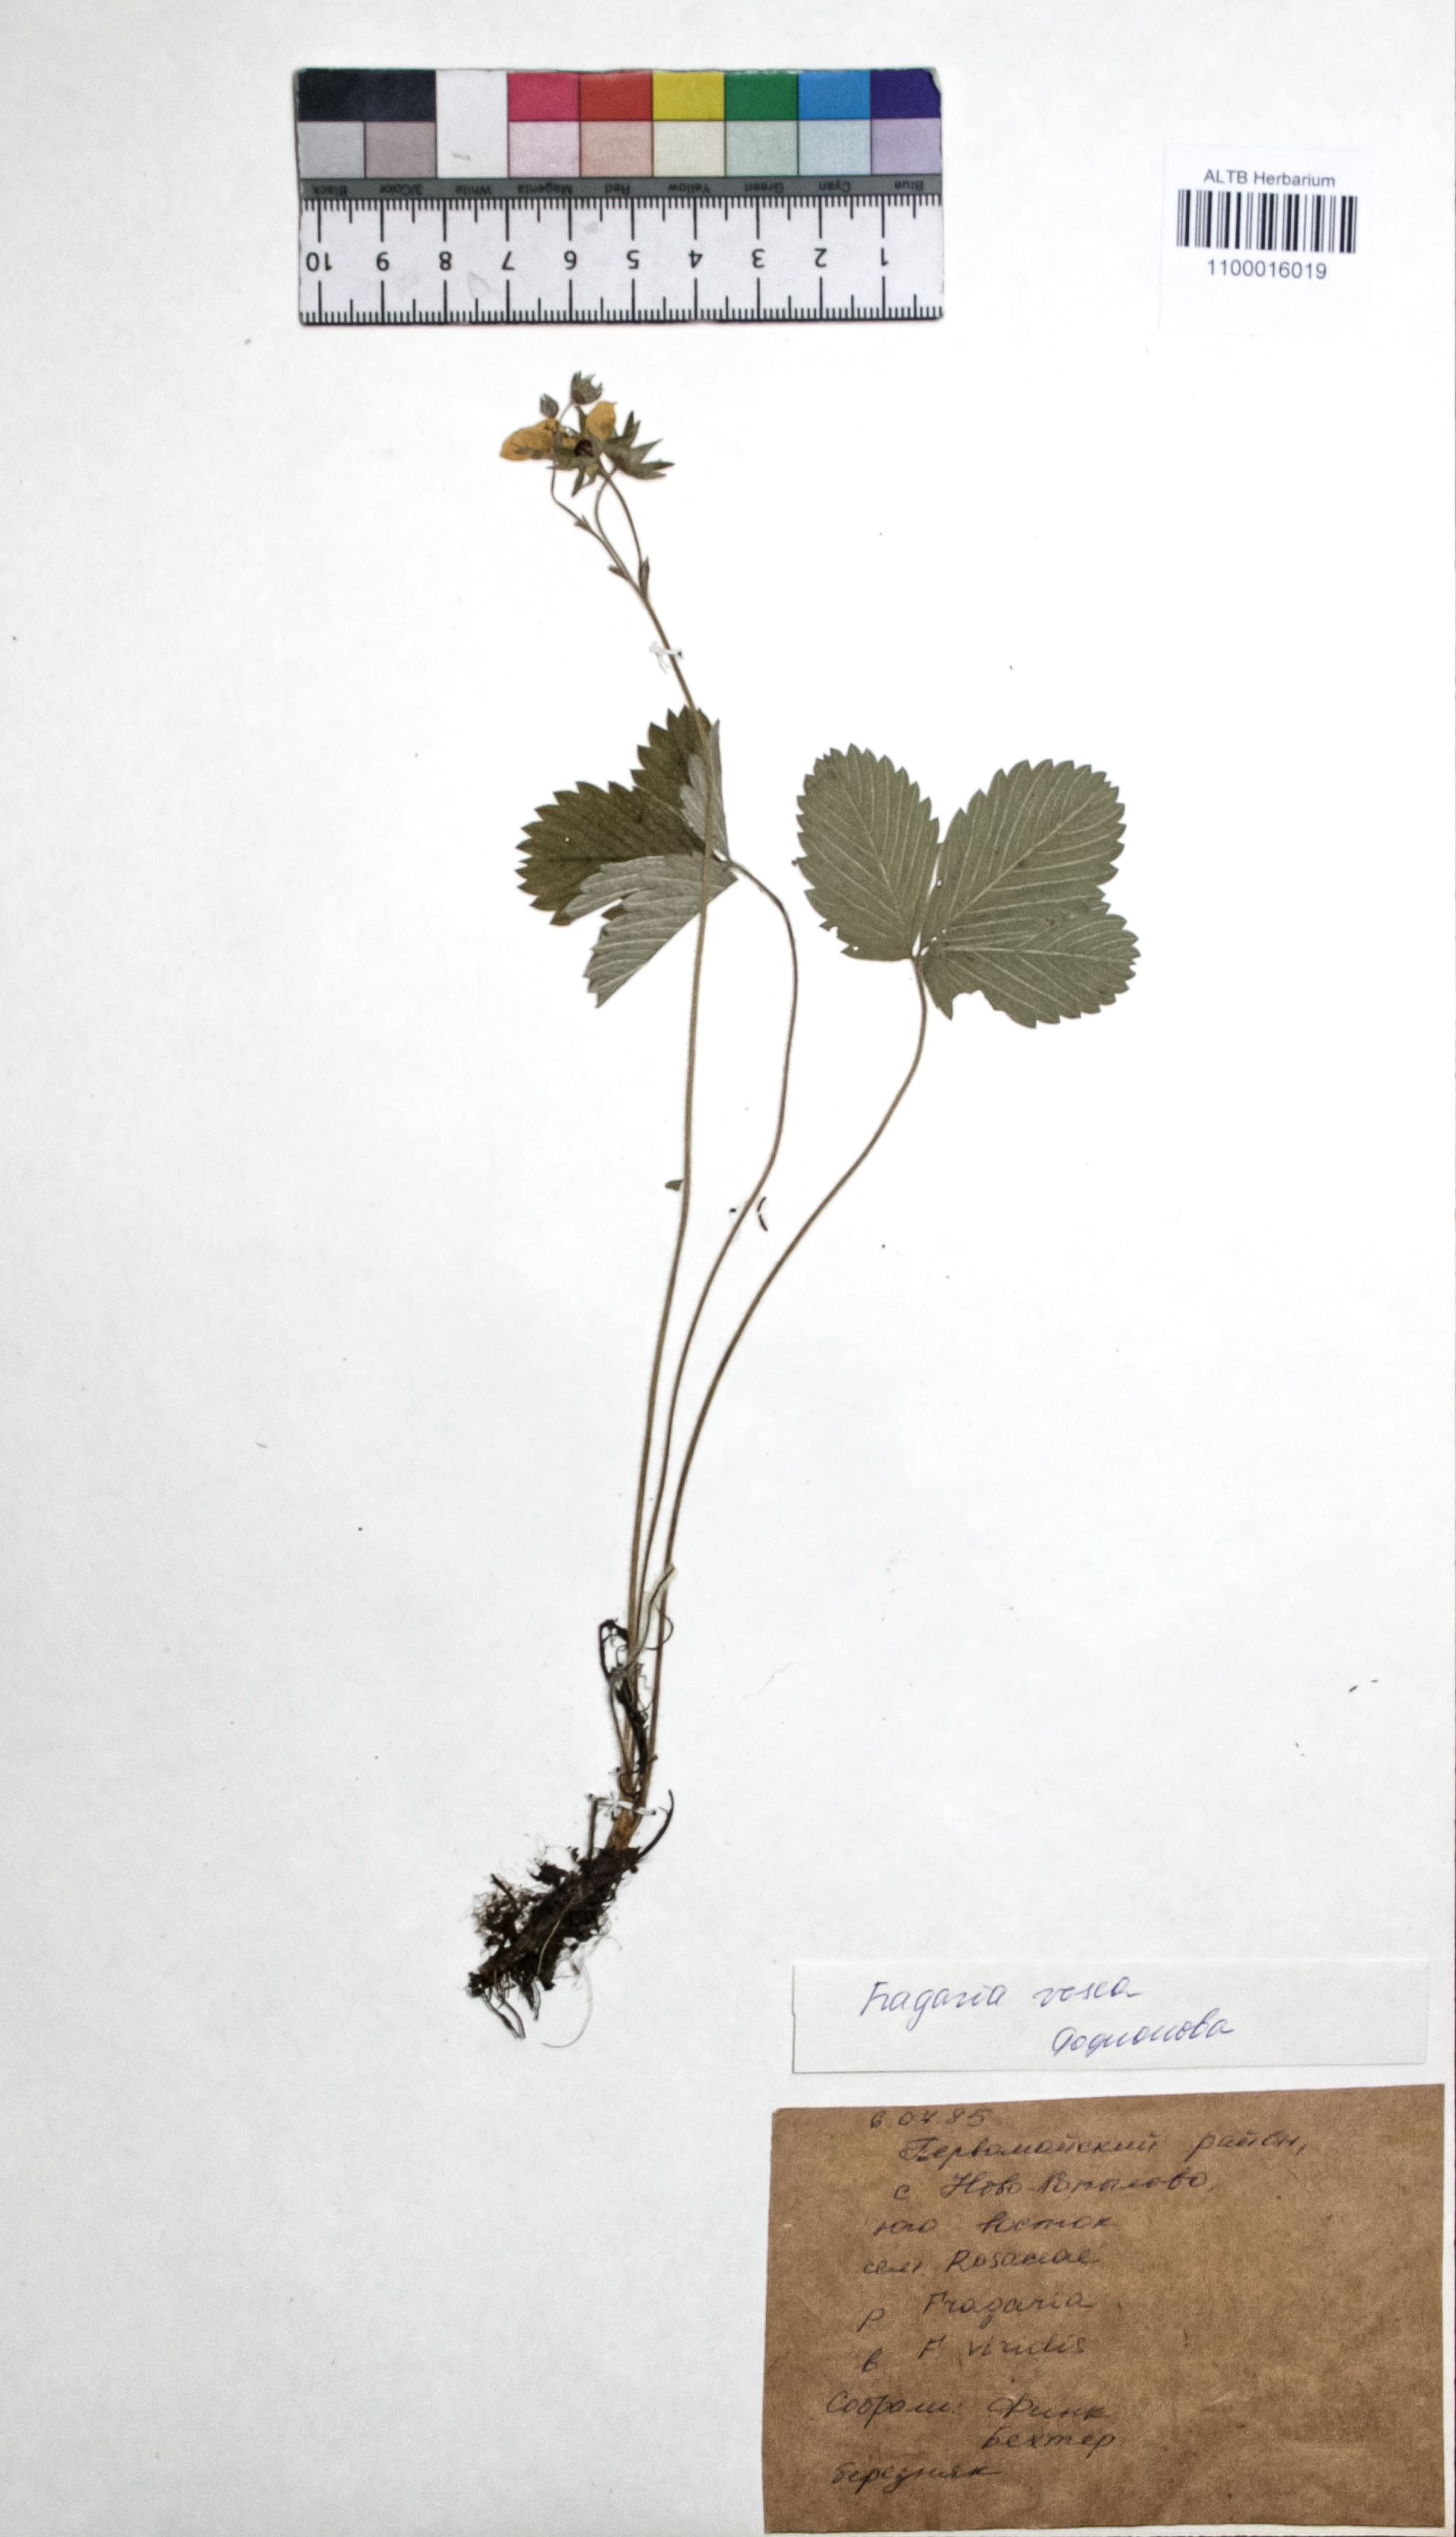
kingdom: Plantae
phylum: Tracheophyta
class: Magnoliopsida
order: Rosales
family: Rosaceae
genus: Fragaria
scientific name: Fragaria vesca
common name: Wild strawberry
